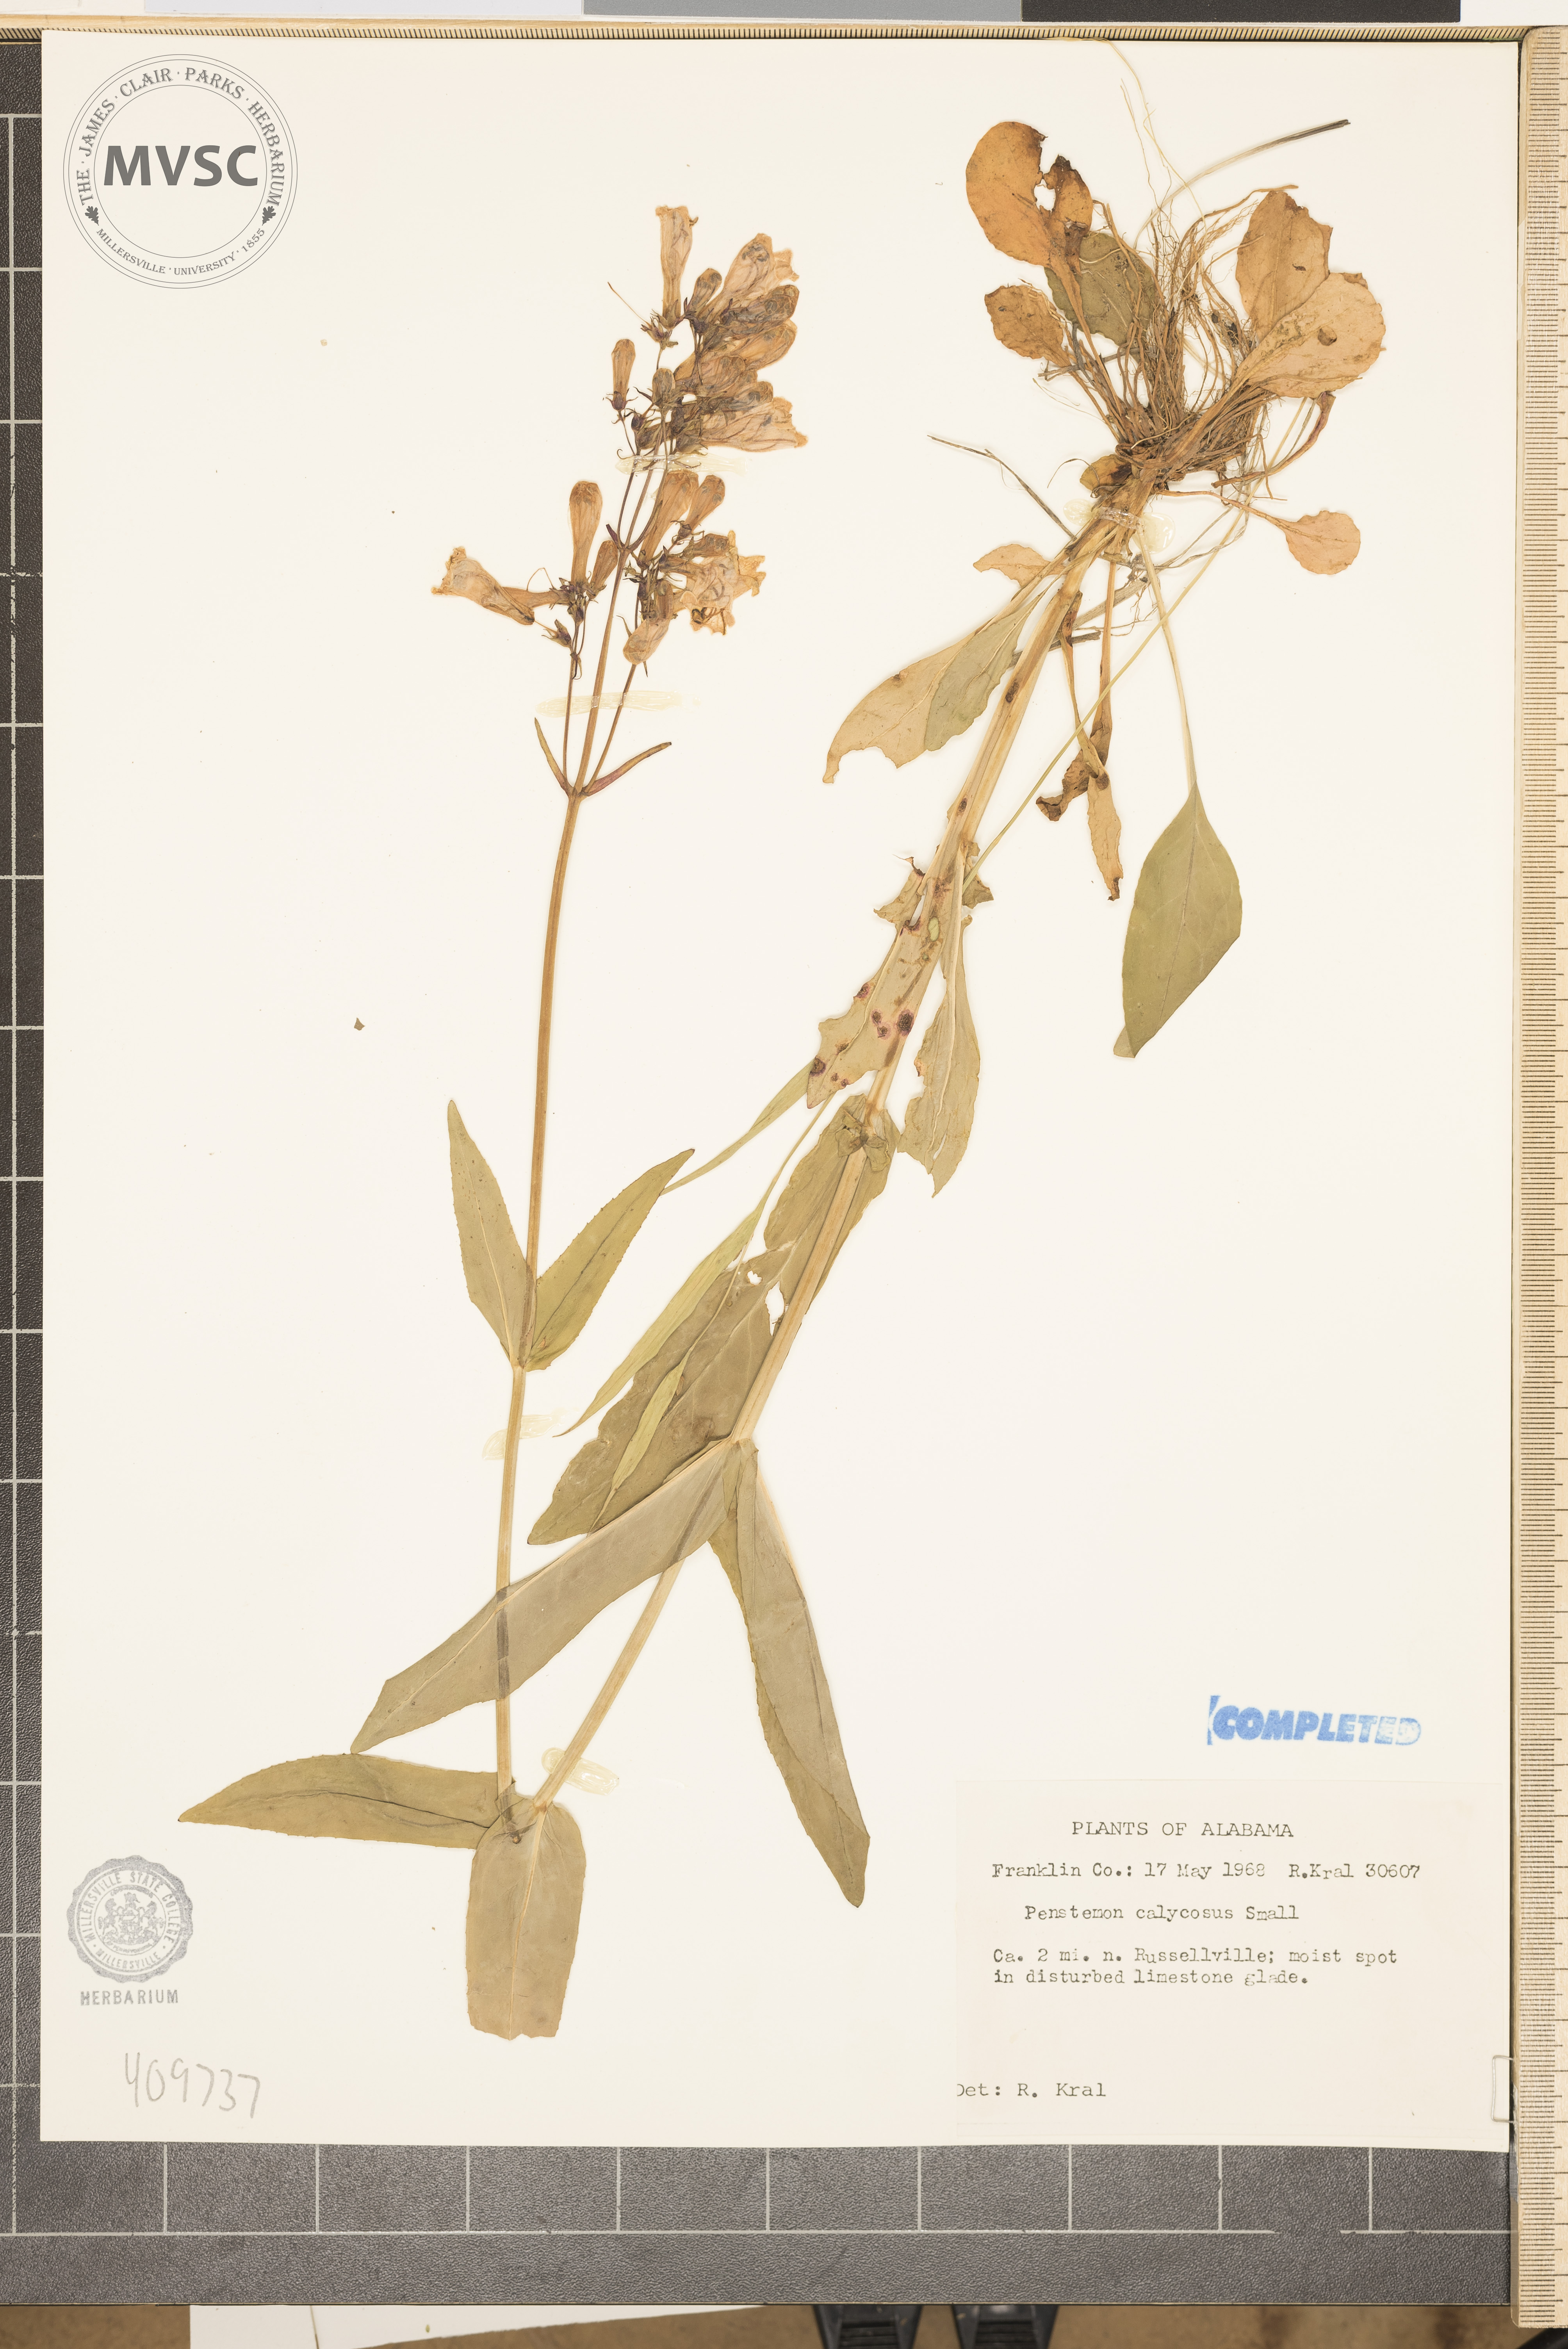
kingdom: Plantae
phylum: Tracheophyta
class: Magnoliopsida
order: Lamiales
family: Plantaginaceae
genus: Penstemon
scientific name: Penstemon calycosus
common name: Long-sepal beardtongue
